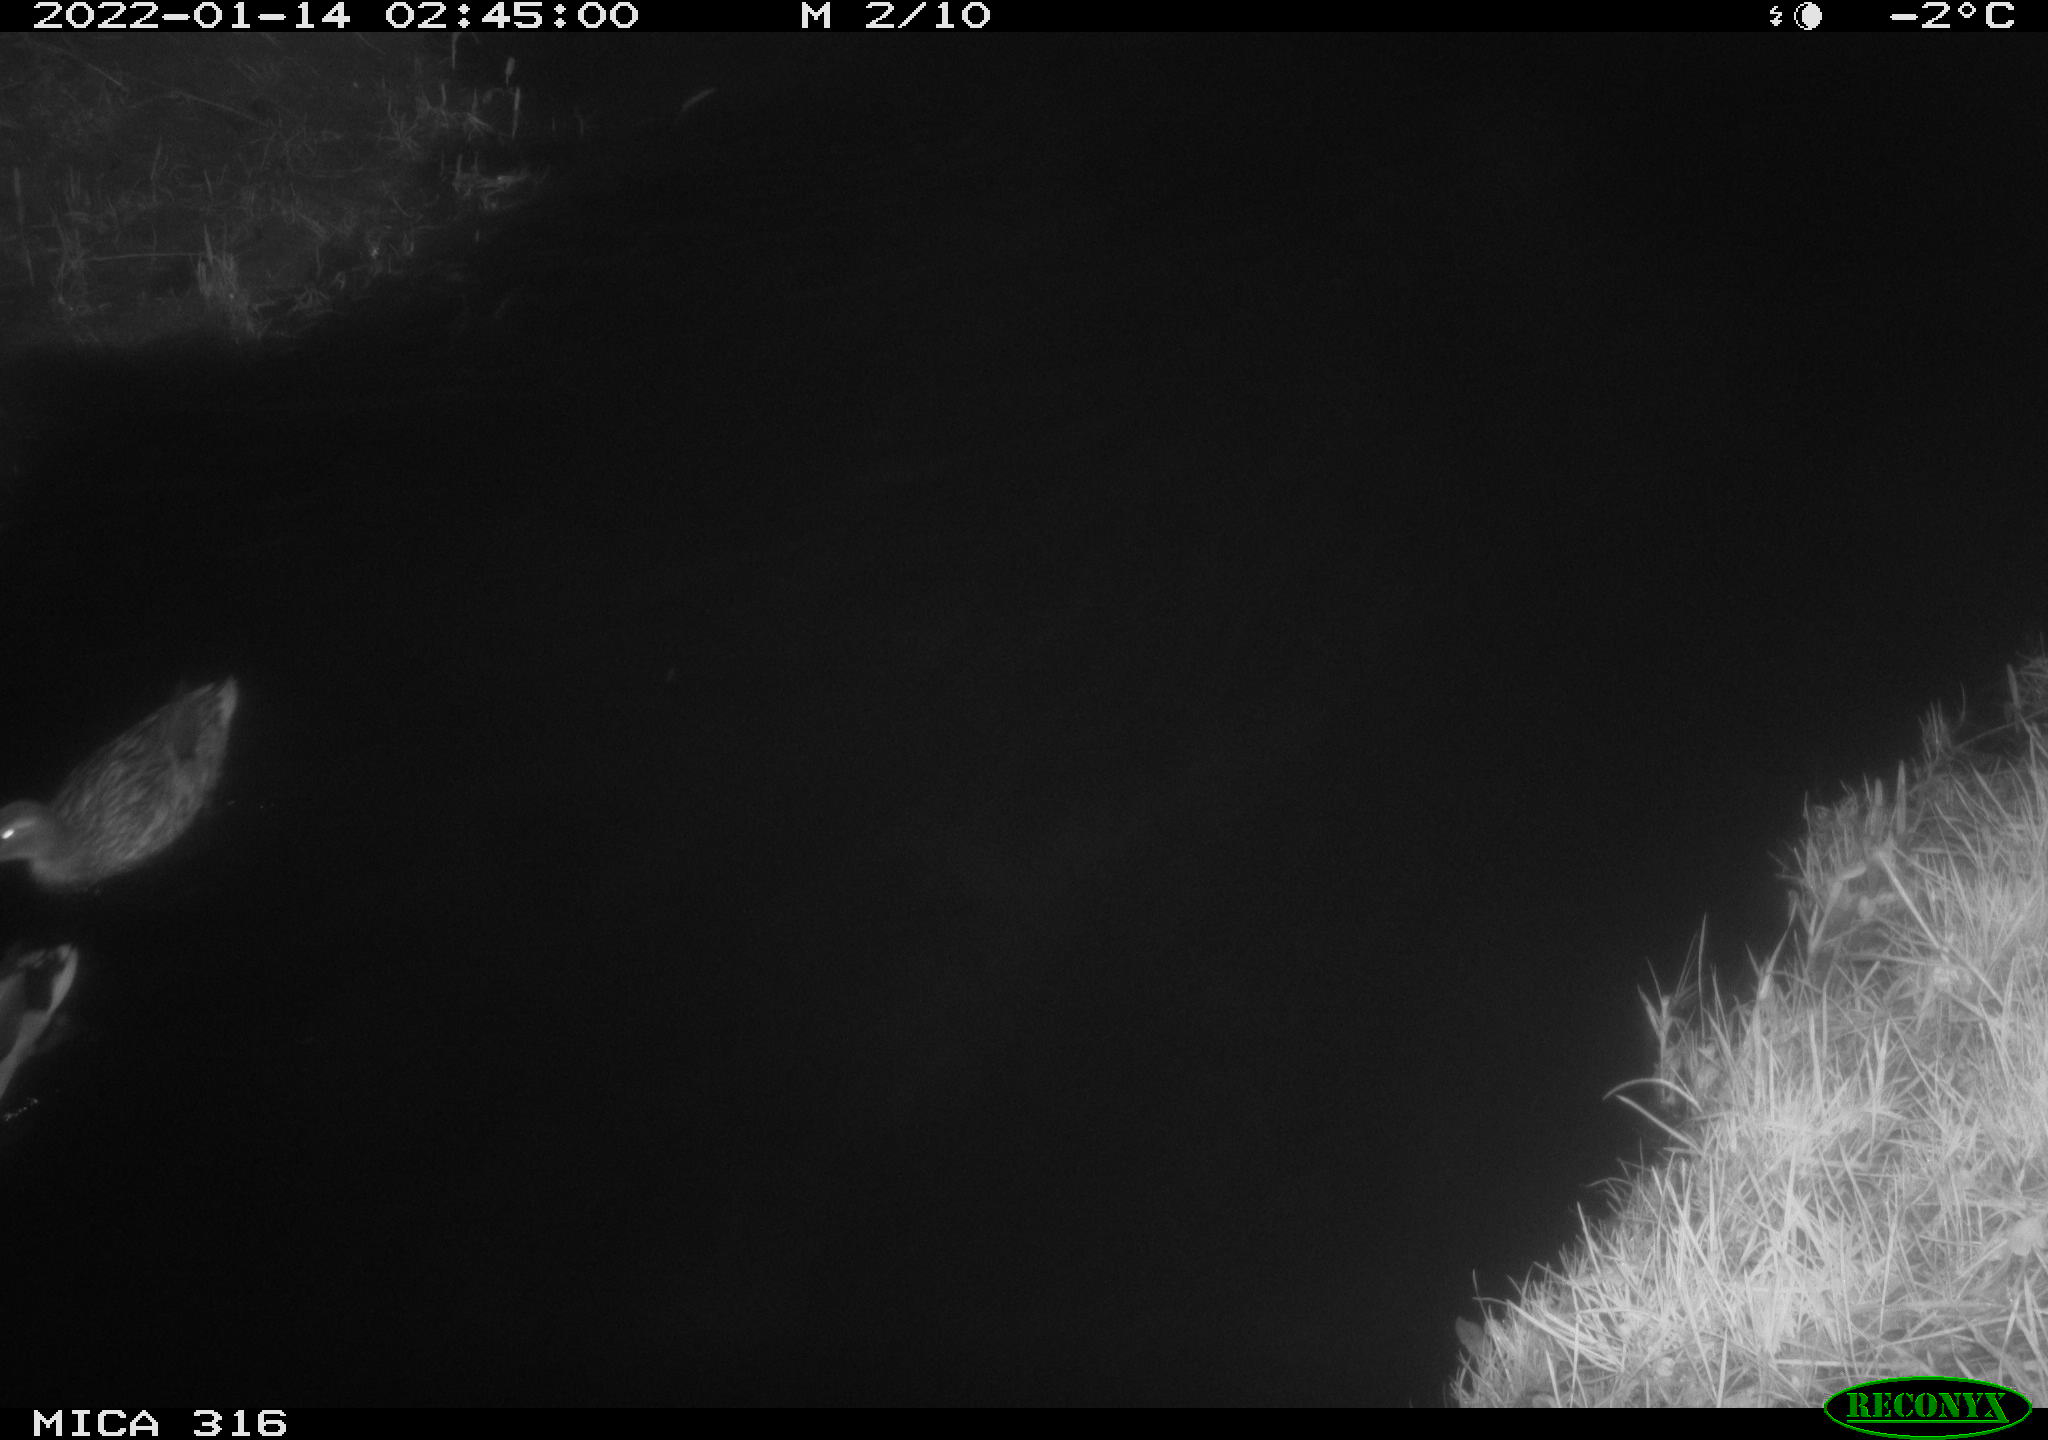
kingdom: Animalia
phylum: Chordata
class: Aves
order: Anseriformes
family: Anatidae
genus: Anas
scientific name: Anas platyrhynchos
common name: Mallard
